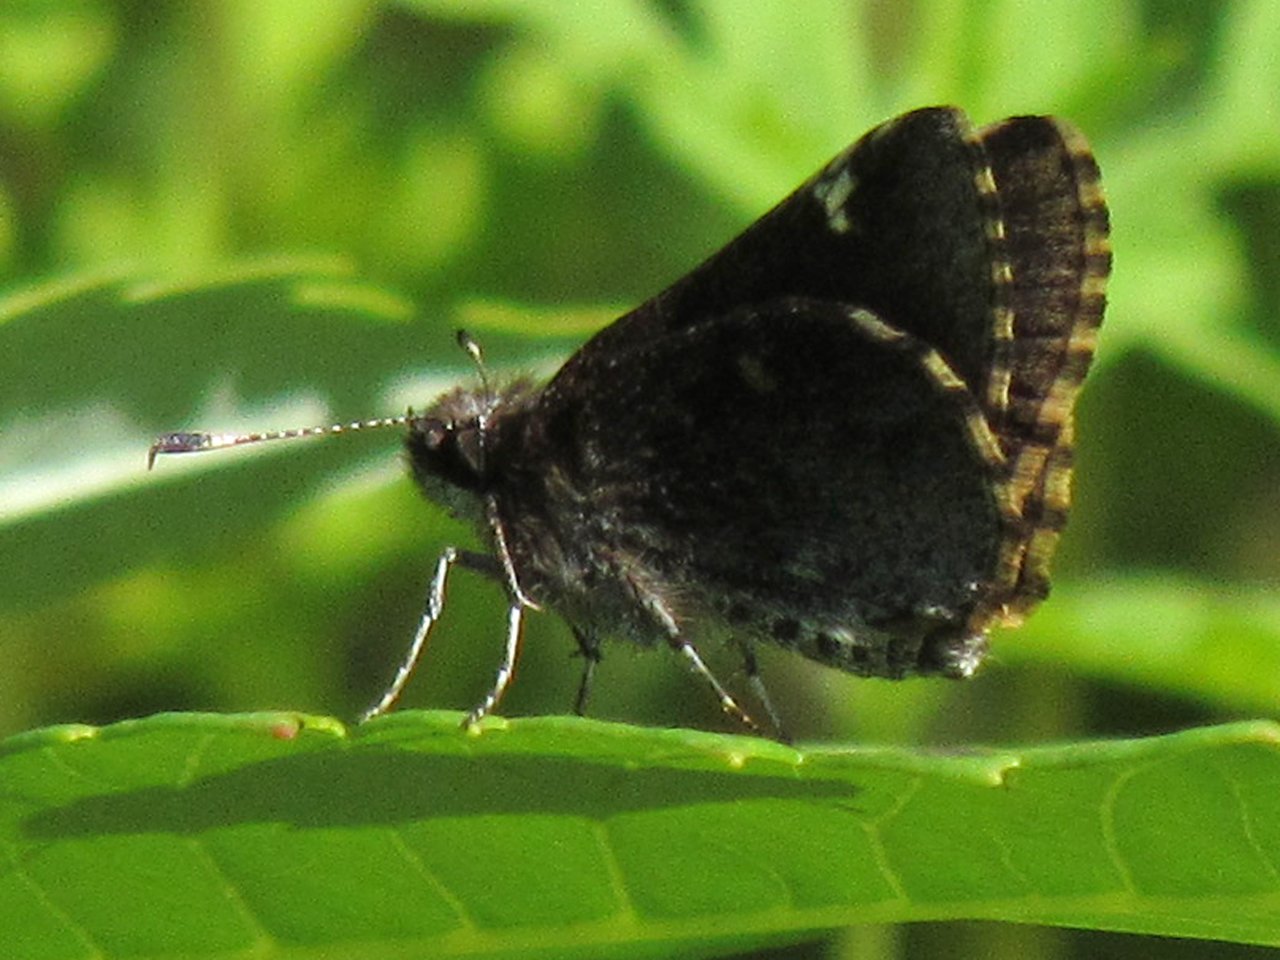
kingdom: Animalia
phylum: Arthropoda
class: Insecta
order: Lepidoptera
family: Hesperiidae
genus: Mastor
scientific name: Mastor vialis
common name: Common Roadside-Skipper
